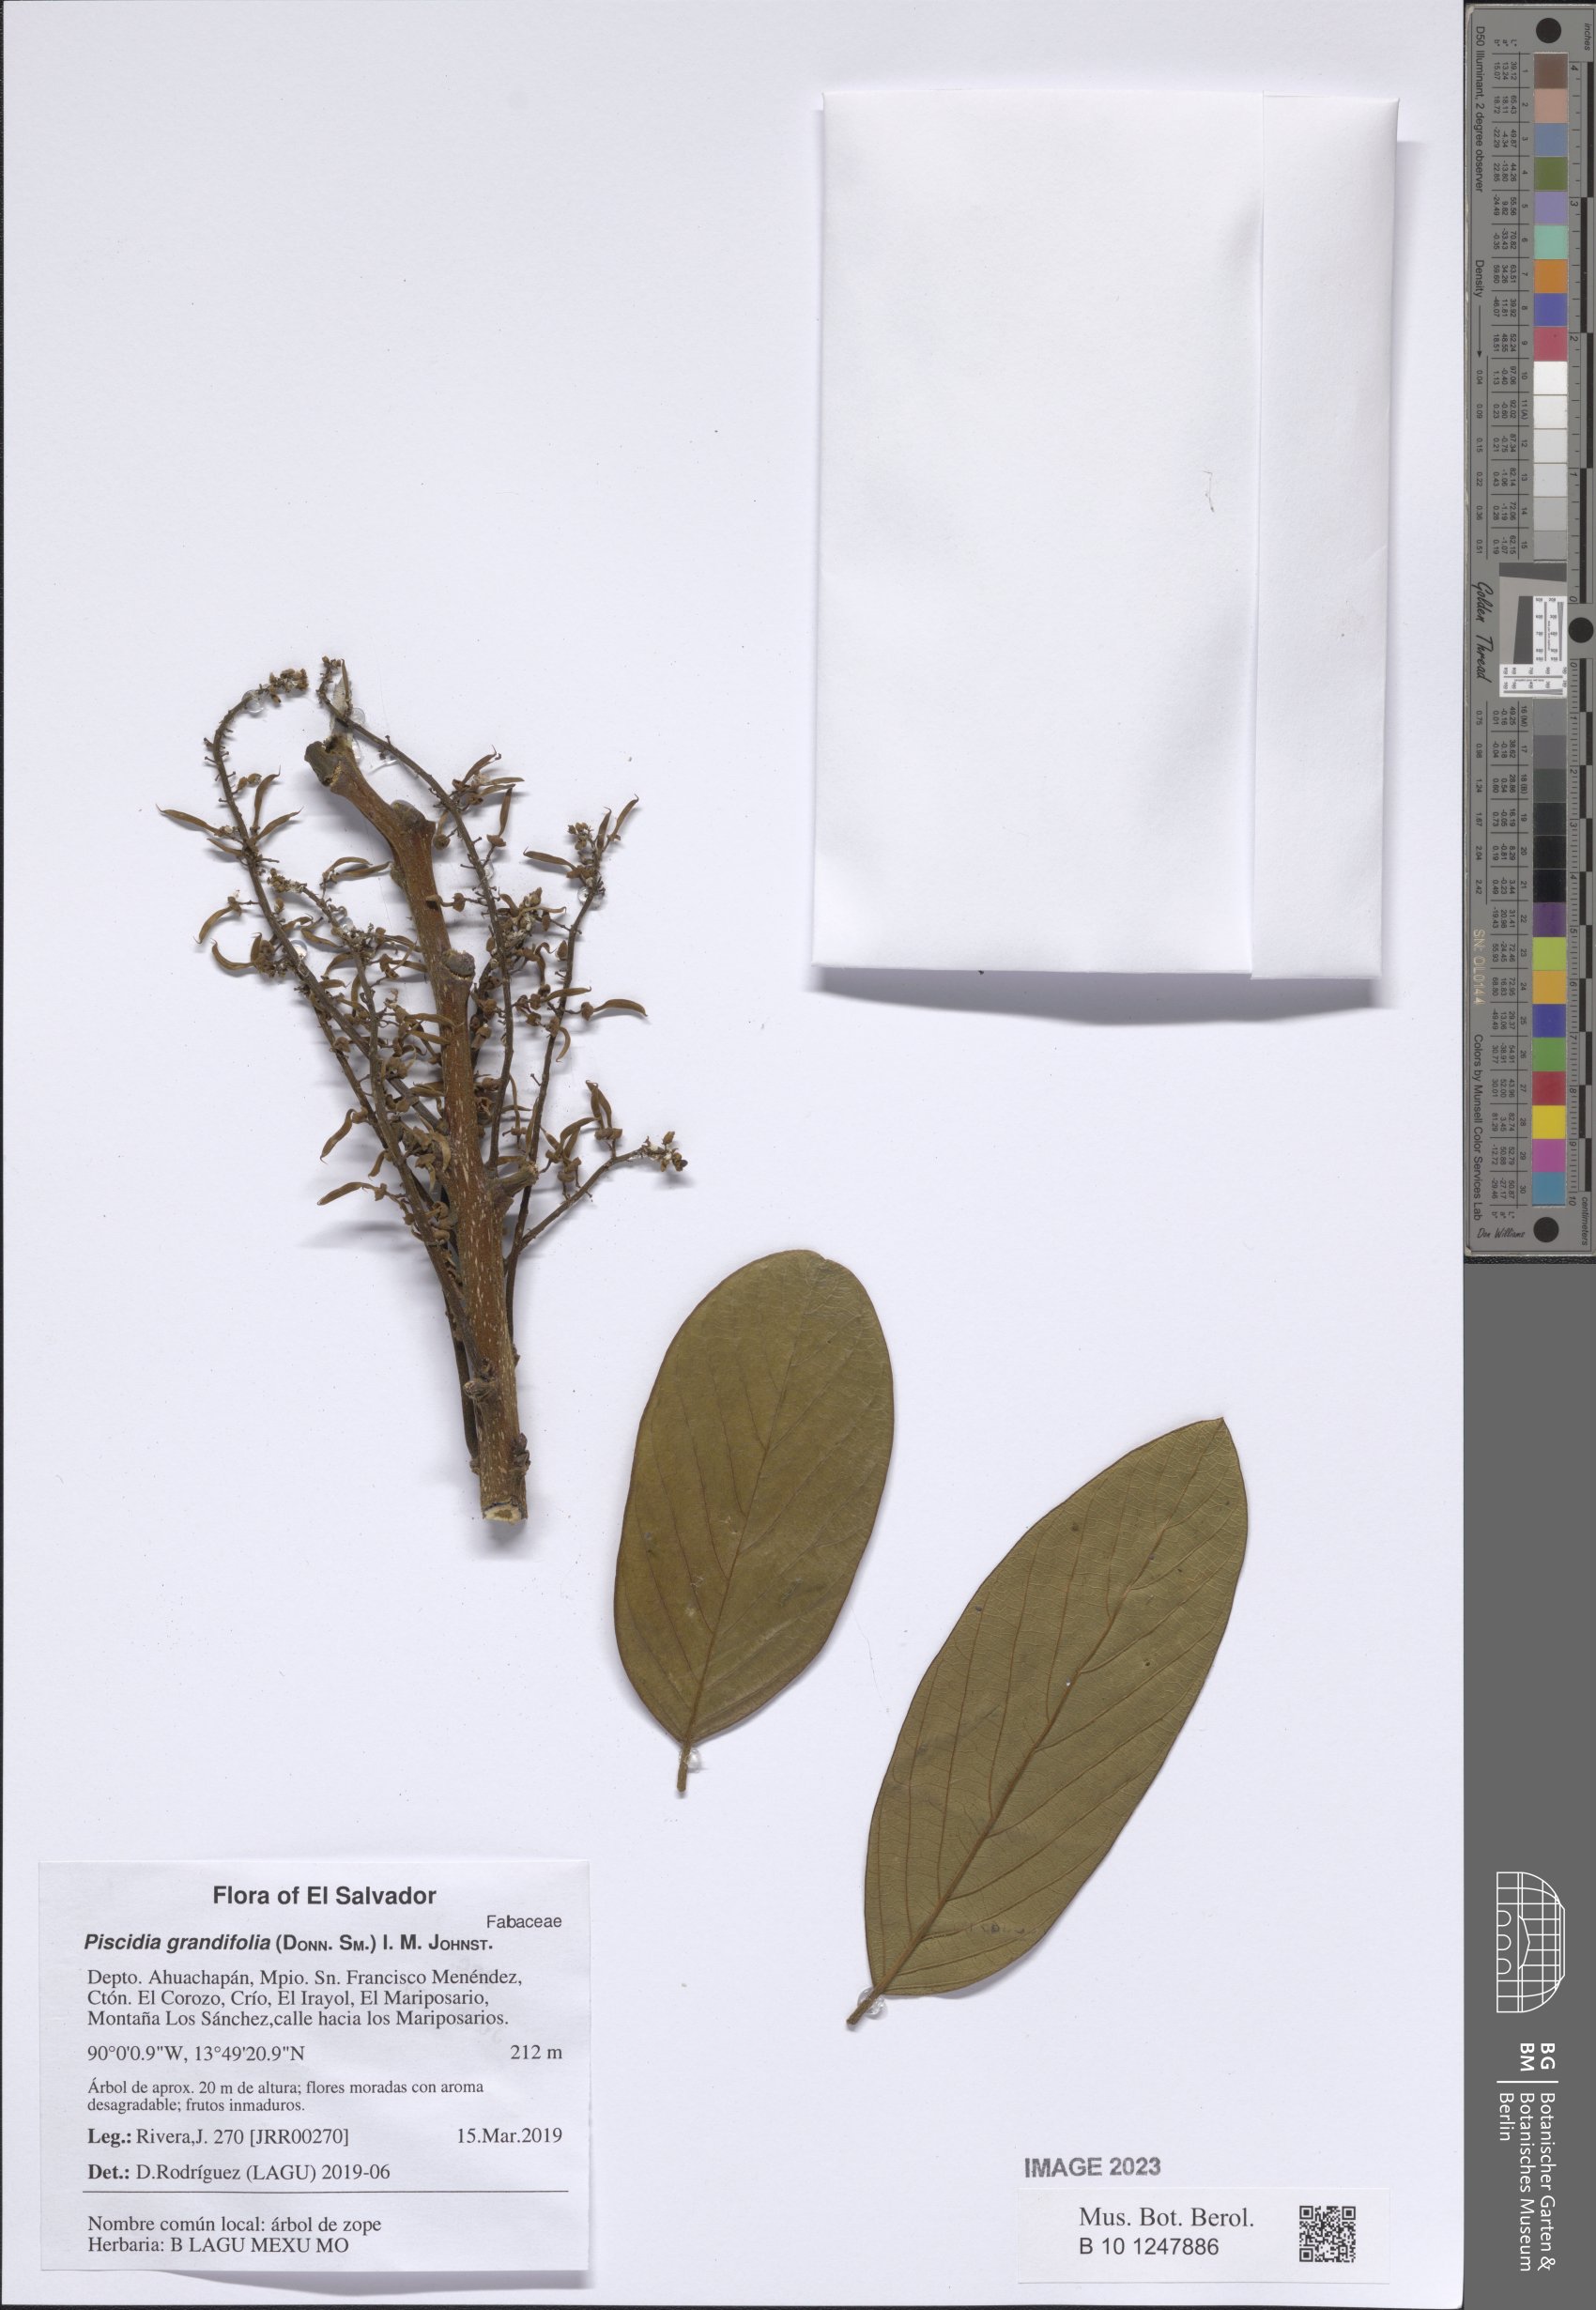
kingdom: Plantae
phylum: Tracheophyta
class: Magnoliopsida
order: Fabales
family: Fabaceae
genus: Piscidia
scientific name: Piscidia grandifolia
